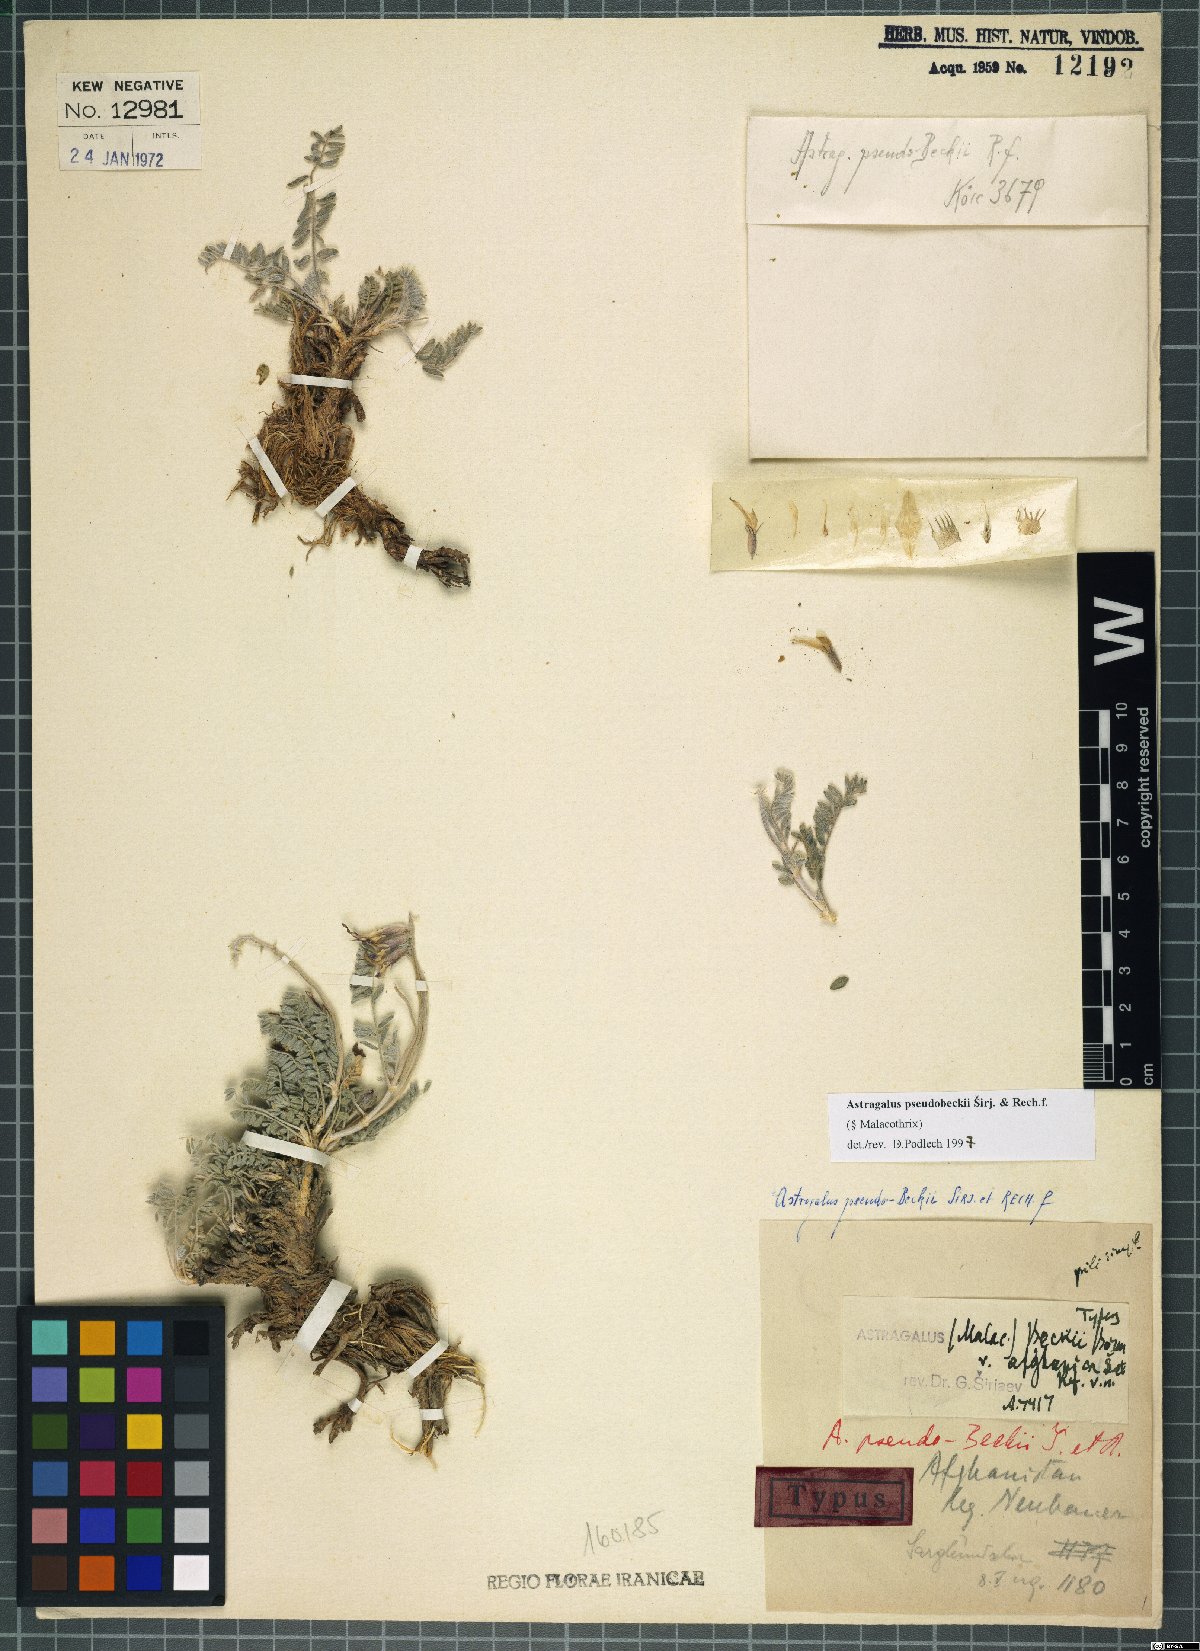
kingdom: Plantae
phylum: Tracheophyta
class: Magnoliopsida
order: Fabales
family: Fabaceae
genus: Astragalus
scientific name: Astragalus pseudobeckii
